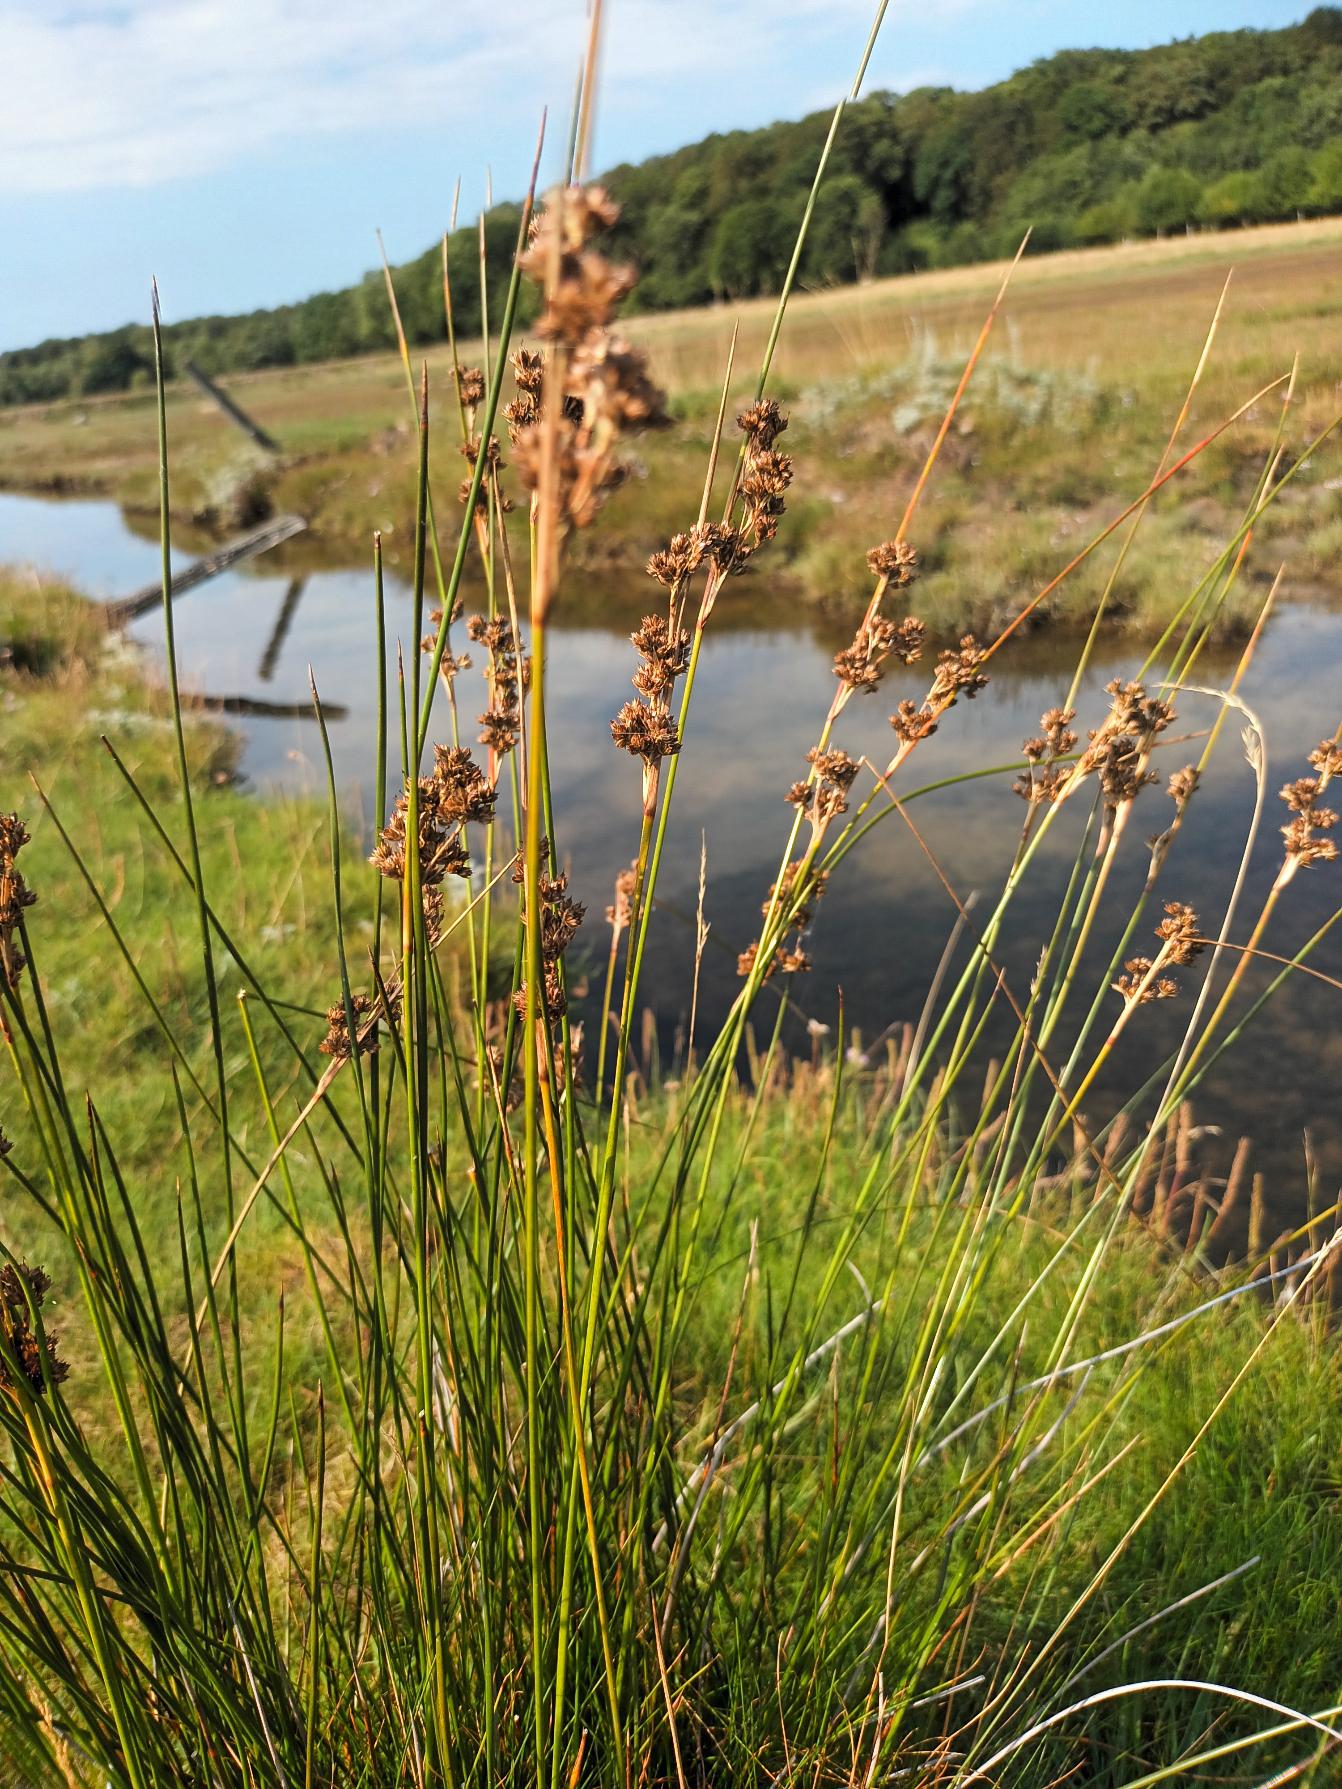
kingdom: Plantae
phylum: Tracheophyta
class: Liliopsida
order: Poales
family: Juncaceae
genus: Juncus
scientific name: Juncus maritimus
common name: Strand-siv
